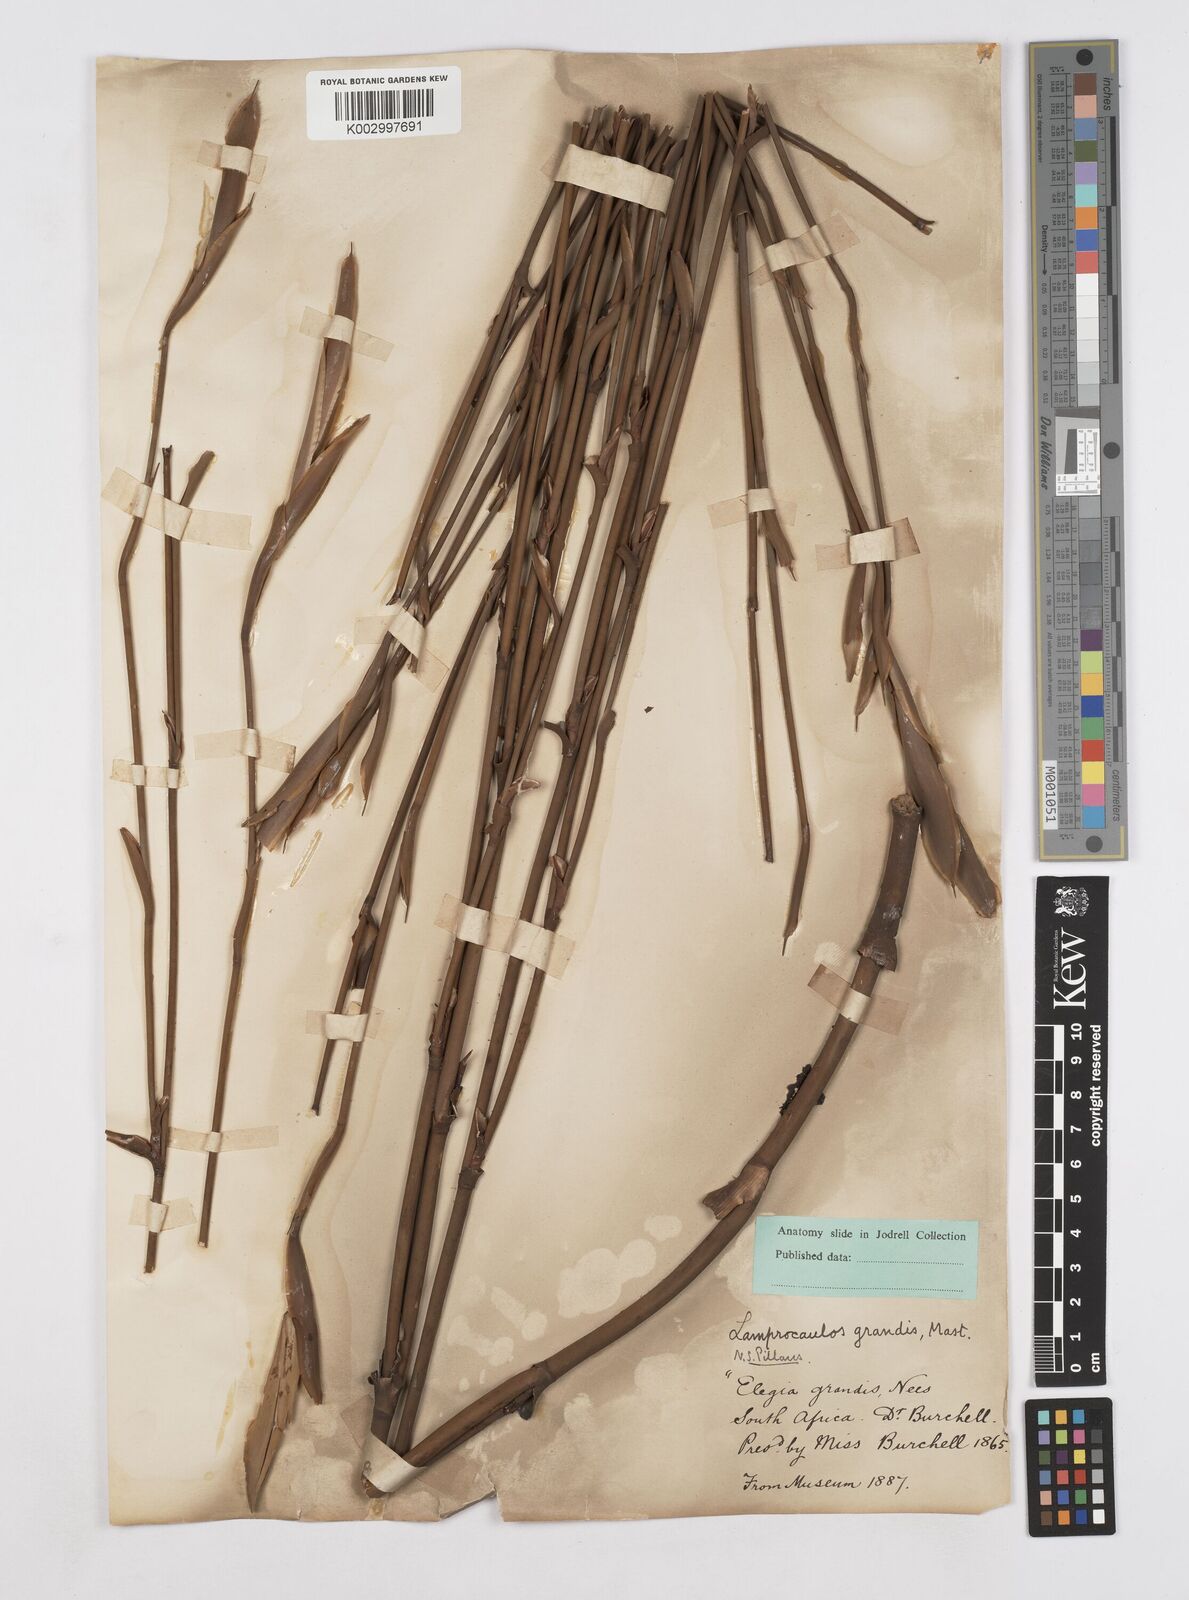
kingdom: Plantae
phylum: Tracheophyta
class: Liliopsida
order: Poales
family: Restionaceae
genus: Elegia
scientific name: Elegia grandis
